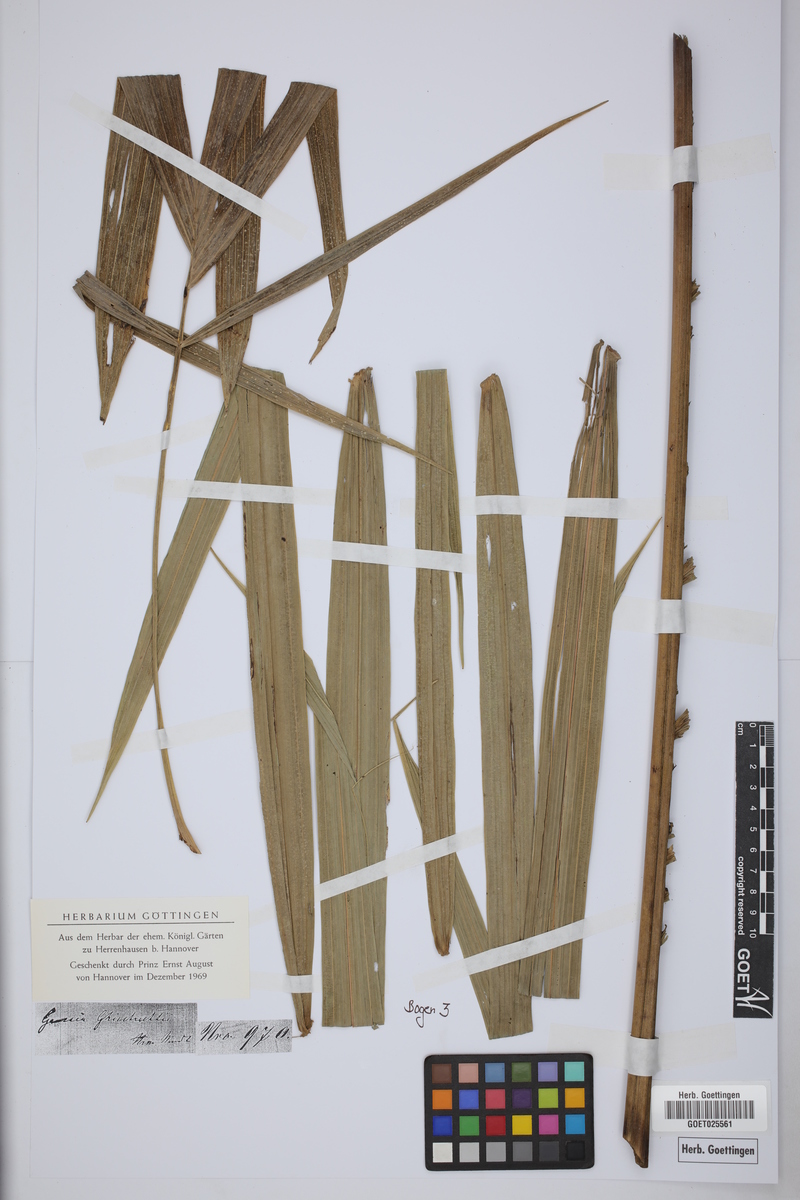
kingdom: Plantae
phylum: Tracheophyta
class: Liliopsida
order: Arecales
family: Arecaceae
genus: Gaussia
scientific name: Gaussia ghiesbreghtii
